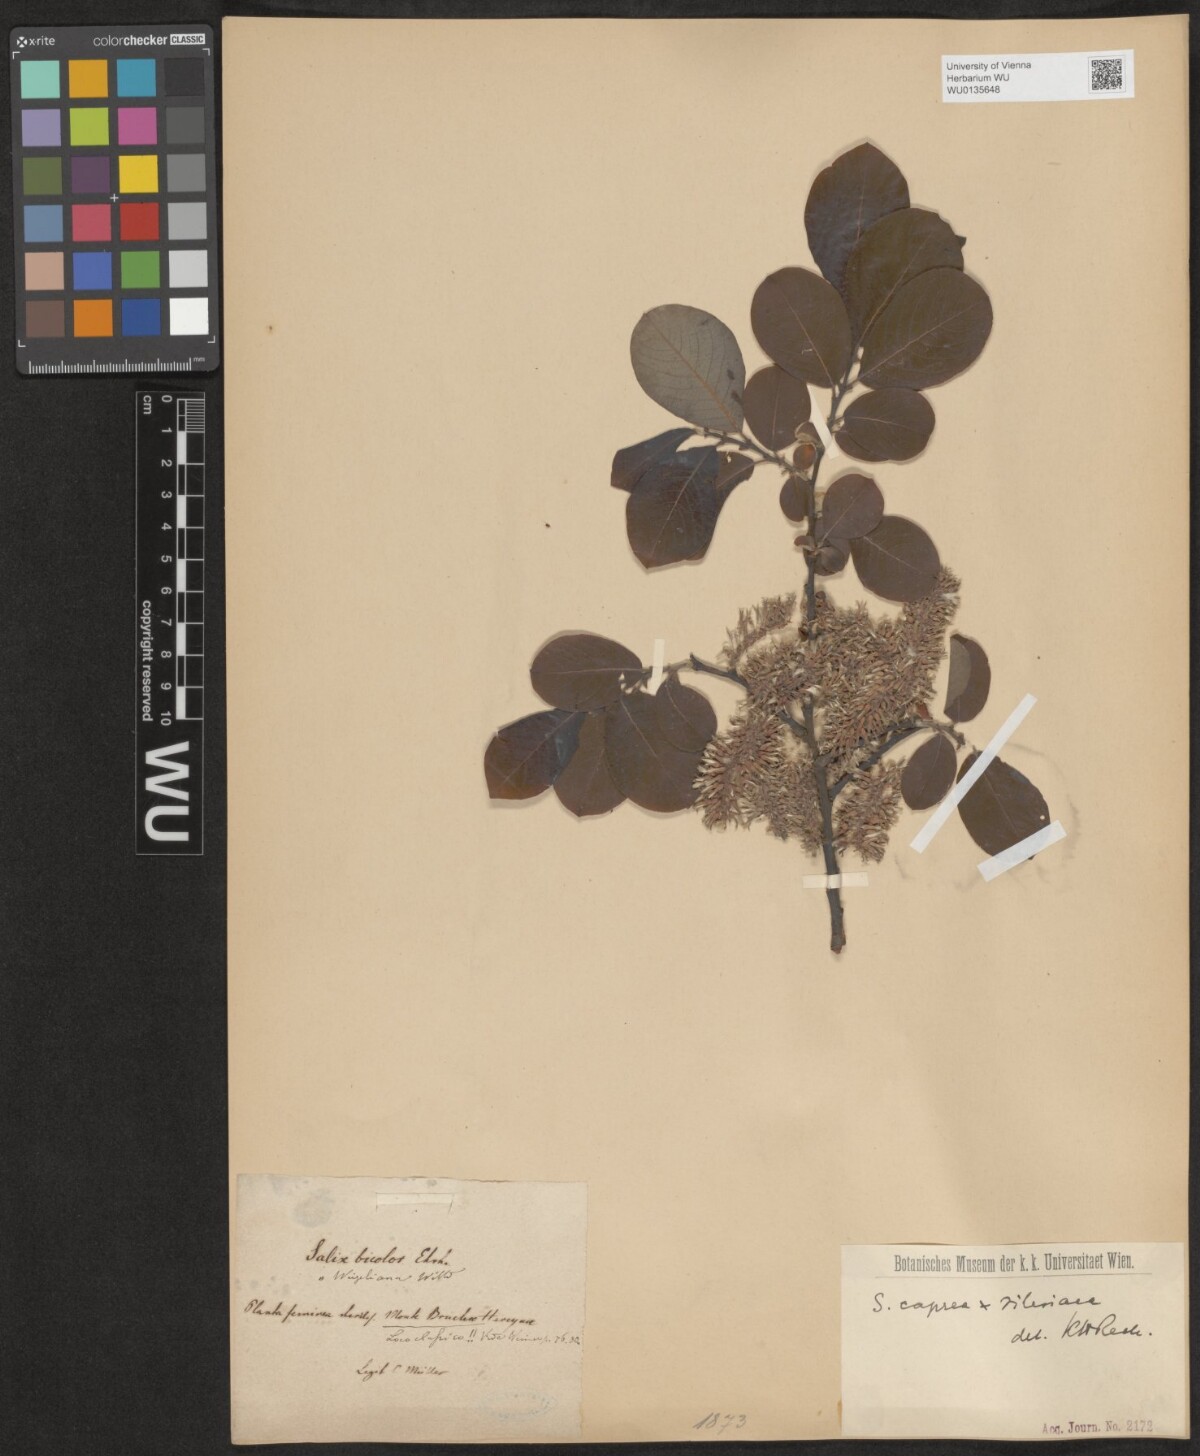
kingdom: Plantae
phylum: Tracheophyta
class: Magnoliopsida
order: Malpighiales
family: Salicaceae
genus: Salix
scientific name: Salix
